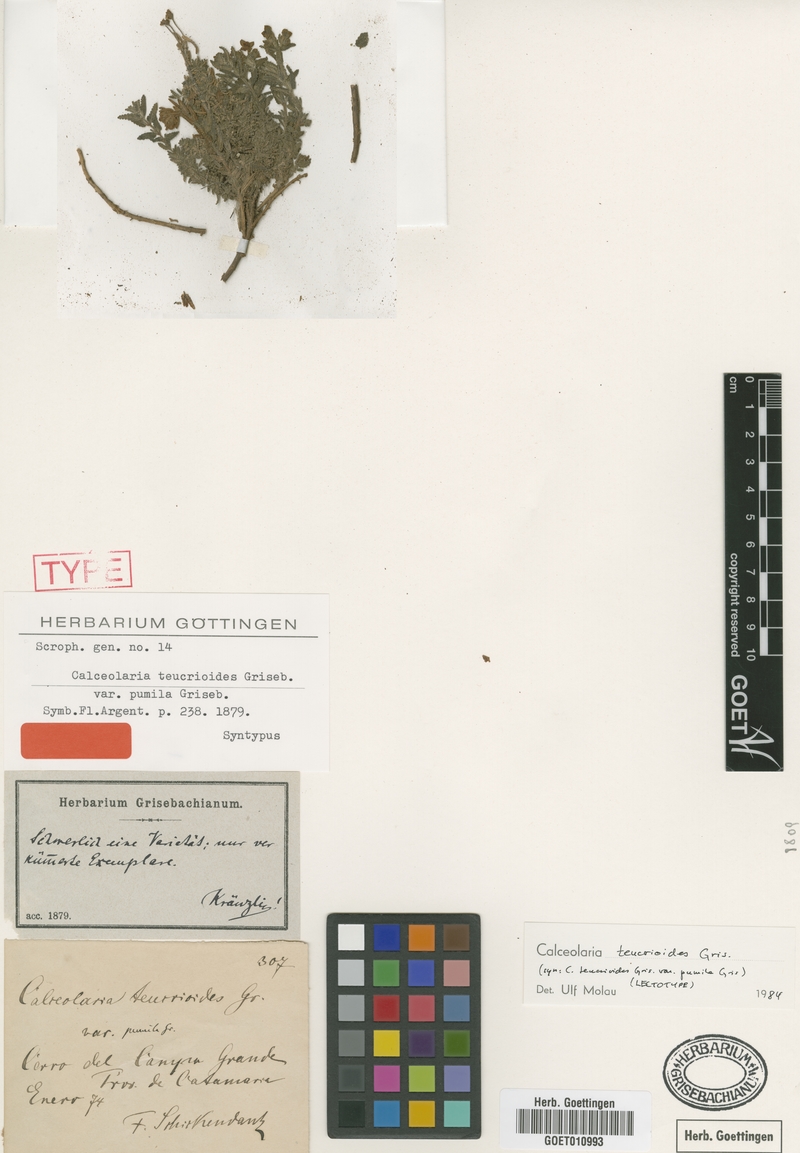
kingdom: Plantae
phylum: Tracheophyta
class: Magnoliopsida
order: Lamiales
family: Calceolariaceae
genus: Calceolaria
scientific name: Calceolaria teucrioides
